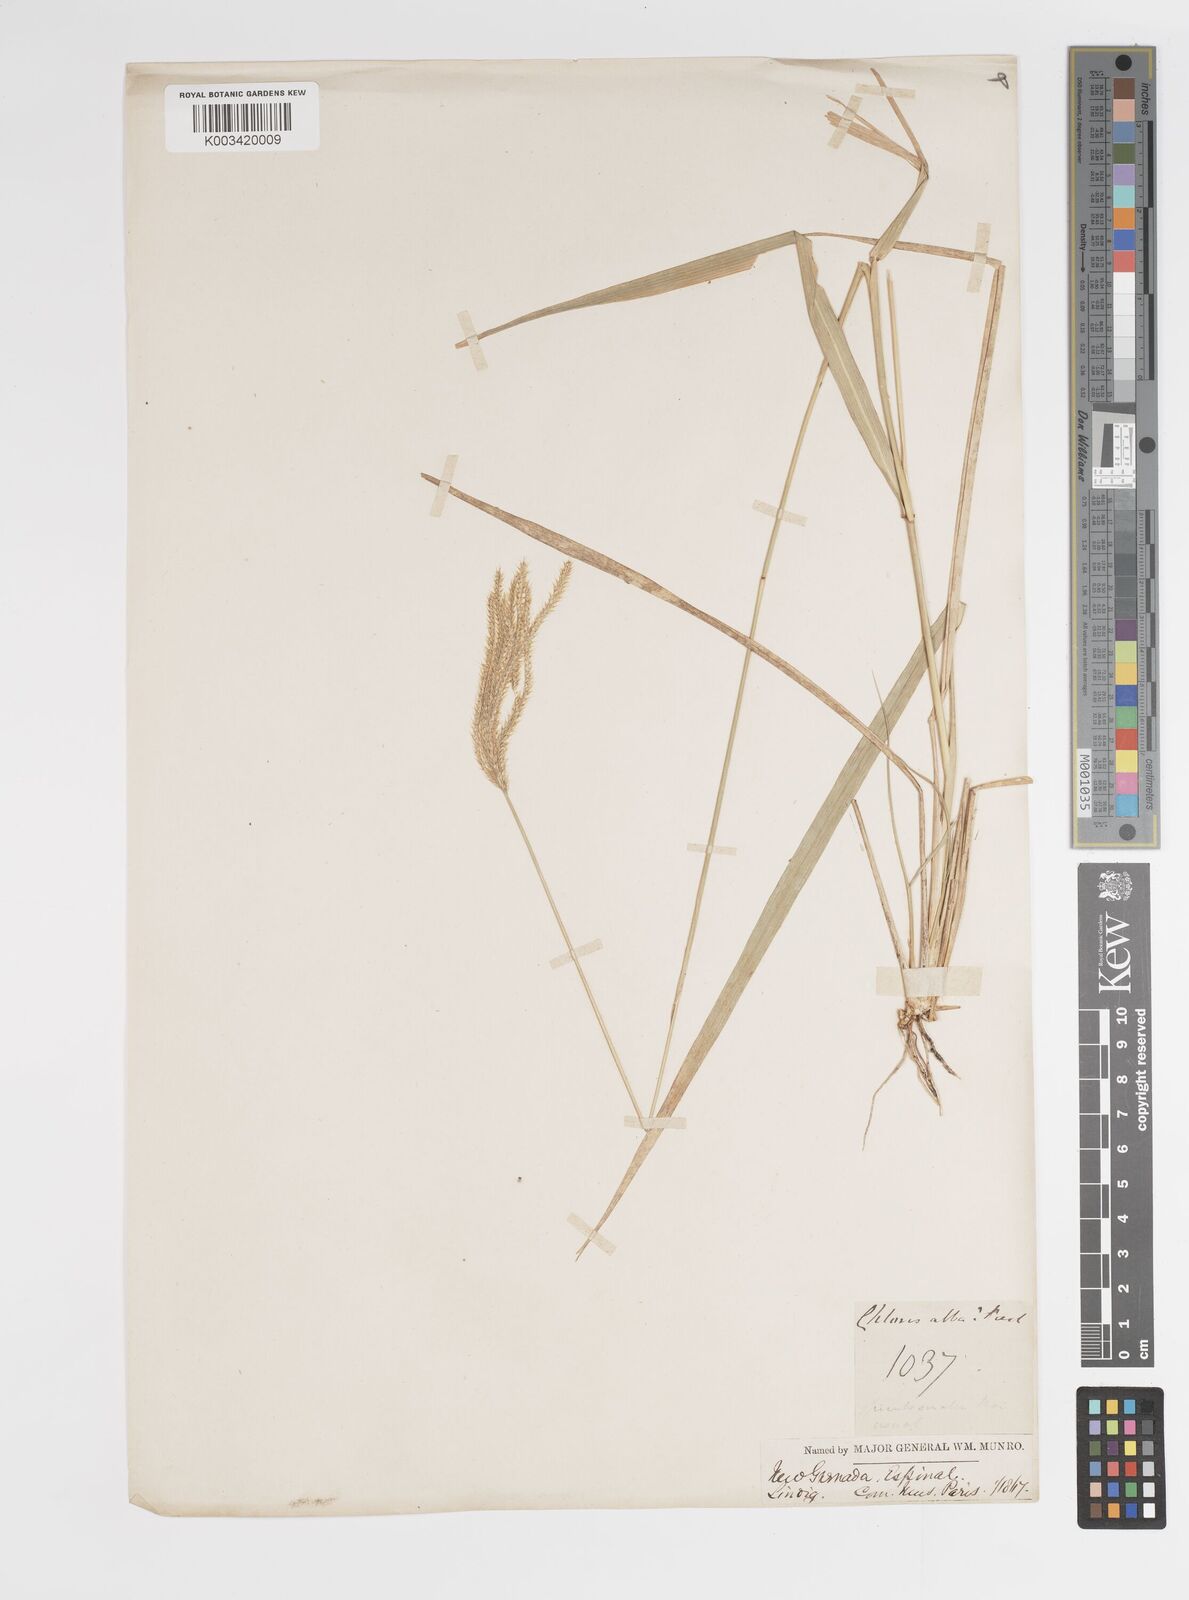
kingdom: Plantae
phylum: Tracheophyta
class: Liliopsida
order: Poales
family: Poaceae
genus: Stapfochloa
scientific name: Stapfochloa elata
